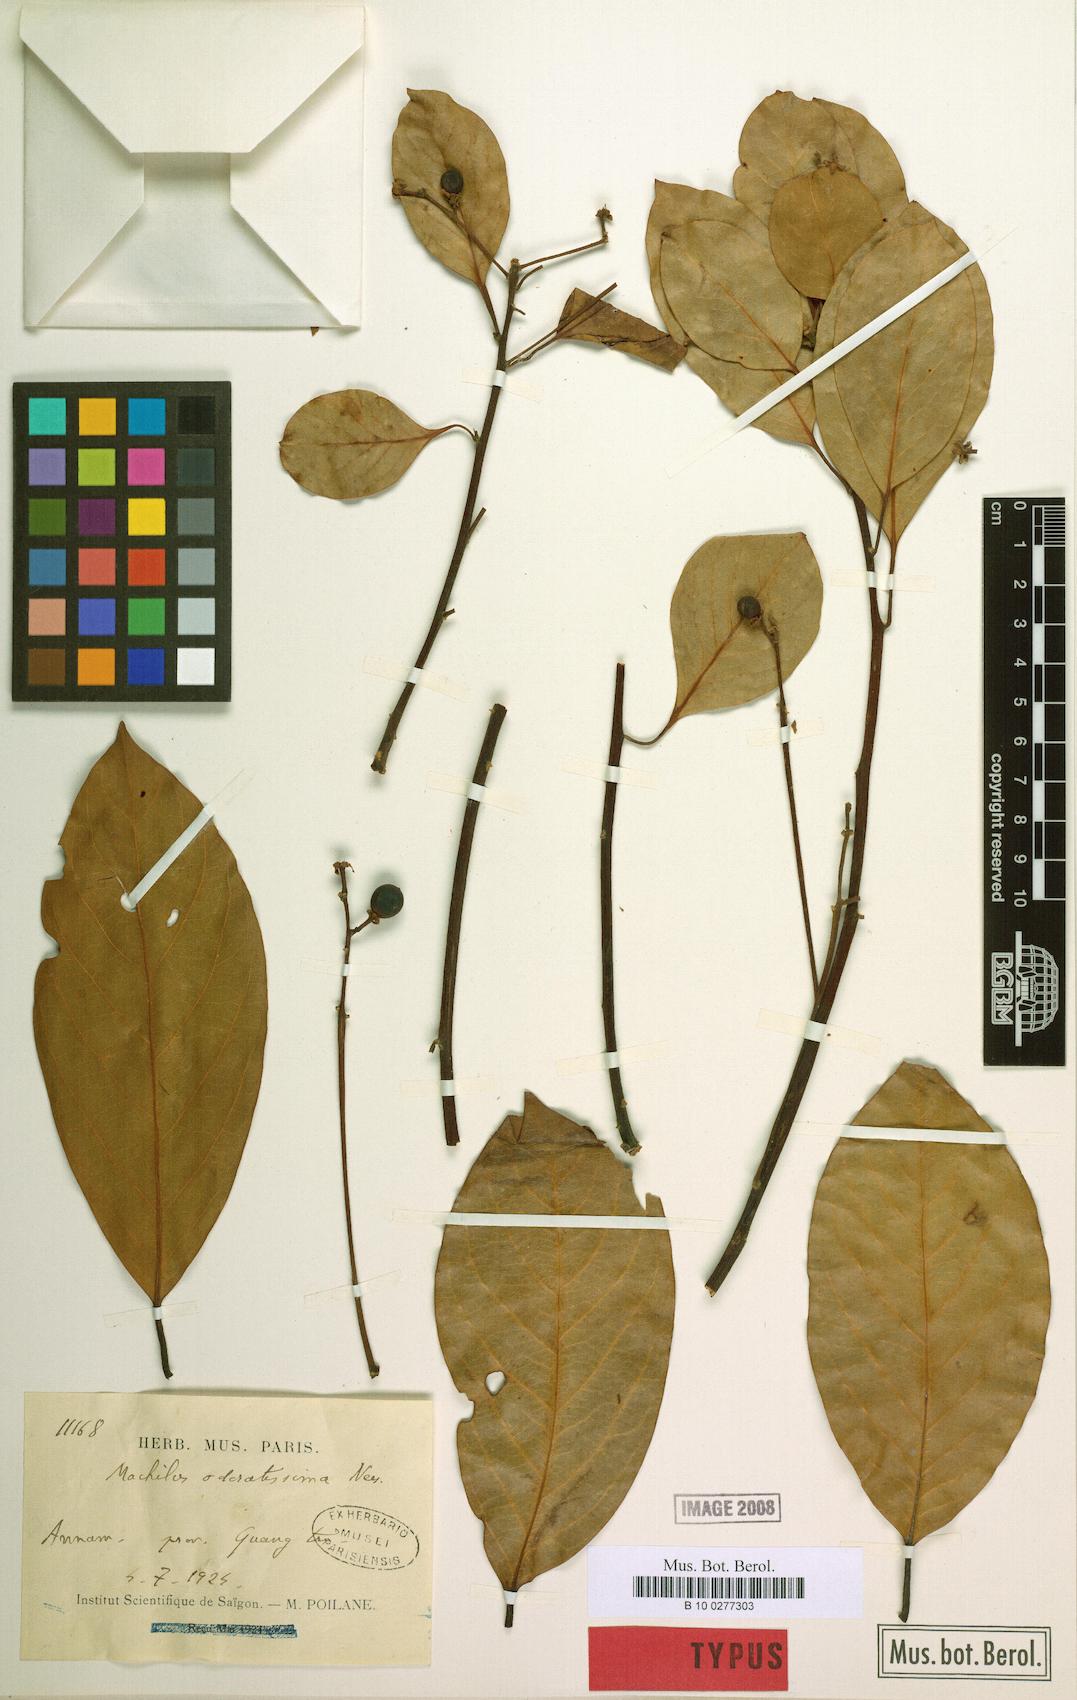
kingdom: Plantae
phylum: Tracheophyta
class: Magnoliopsida
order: Laurales
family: Lauraceae
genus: Machilus
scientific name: Machilus odoratissimus
